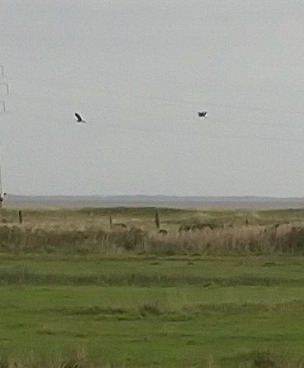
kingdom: Animalia
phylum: Chordata
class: Aves
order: Pelecaniformes
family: Ardeidae
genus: Ardea
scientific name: Ardea cinerea
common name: Fiskehejre
